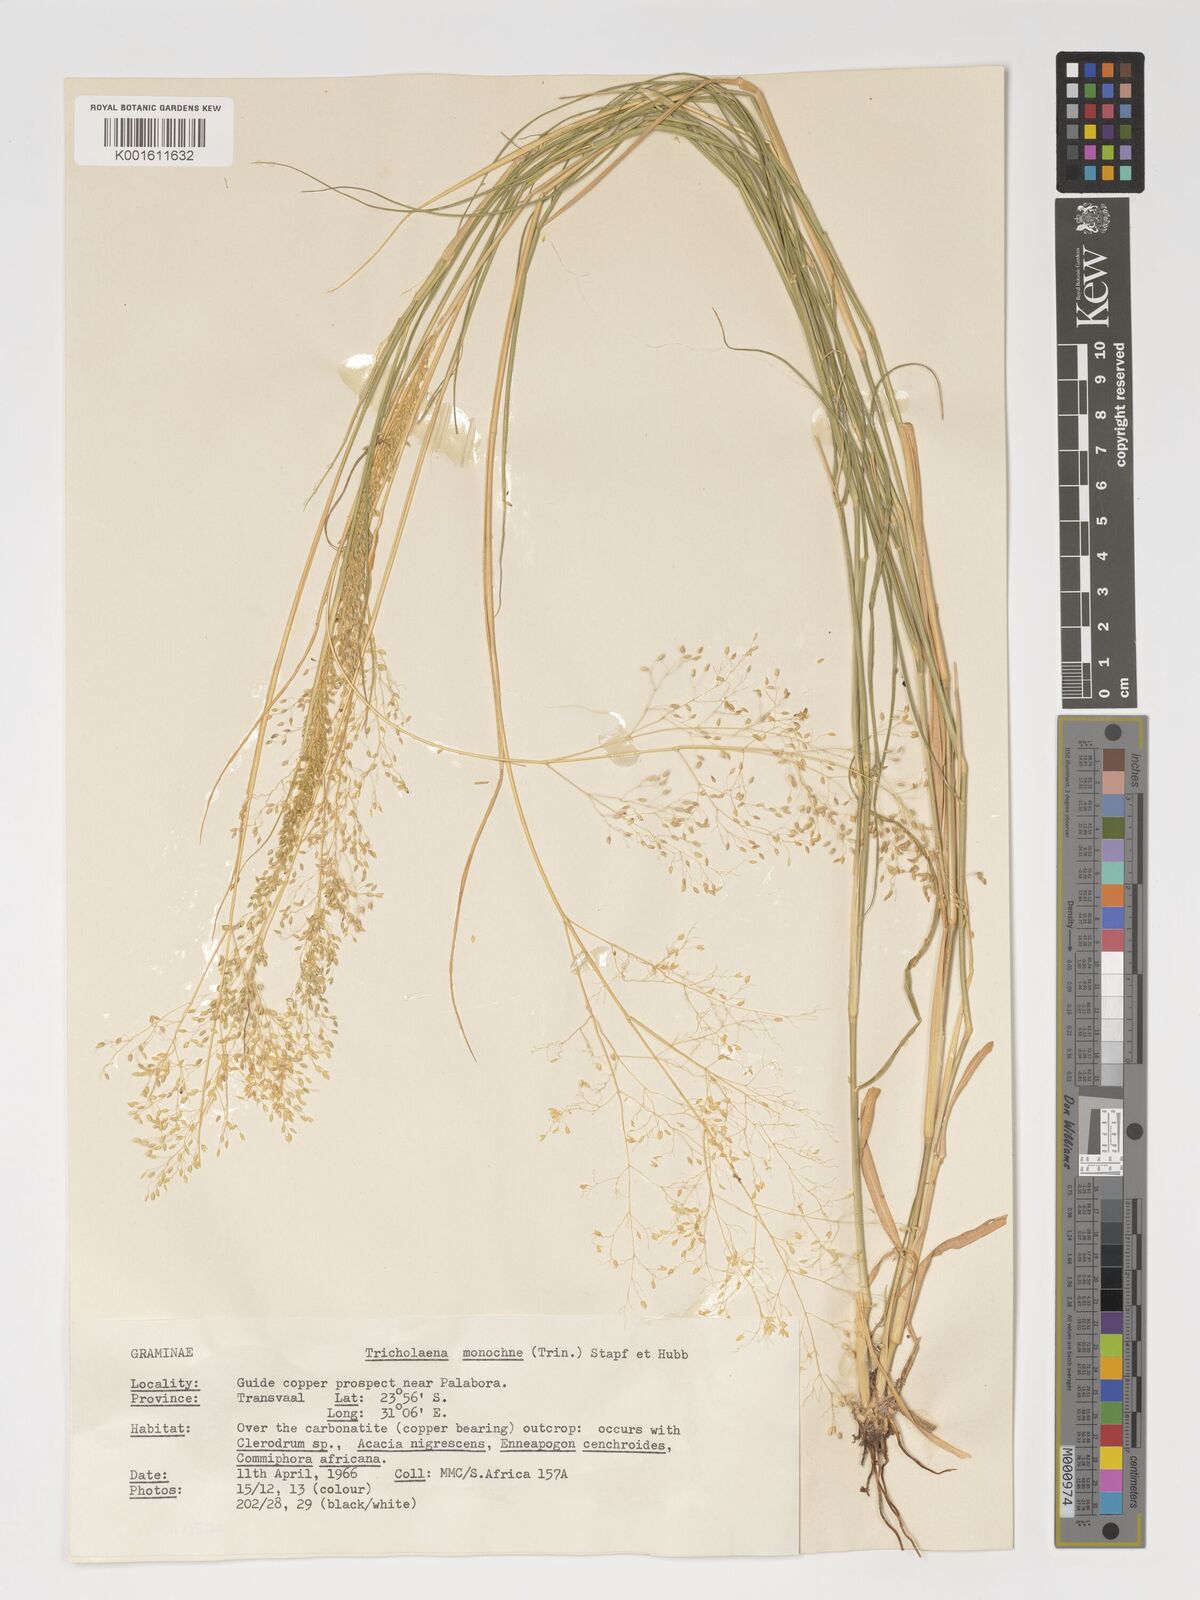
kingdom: Plantae
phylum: Tracheophyta
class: Liliopsida
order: Poales
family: Poaceae
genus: Tricholaena
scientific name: Tricholaena monachne
